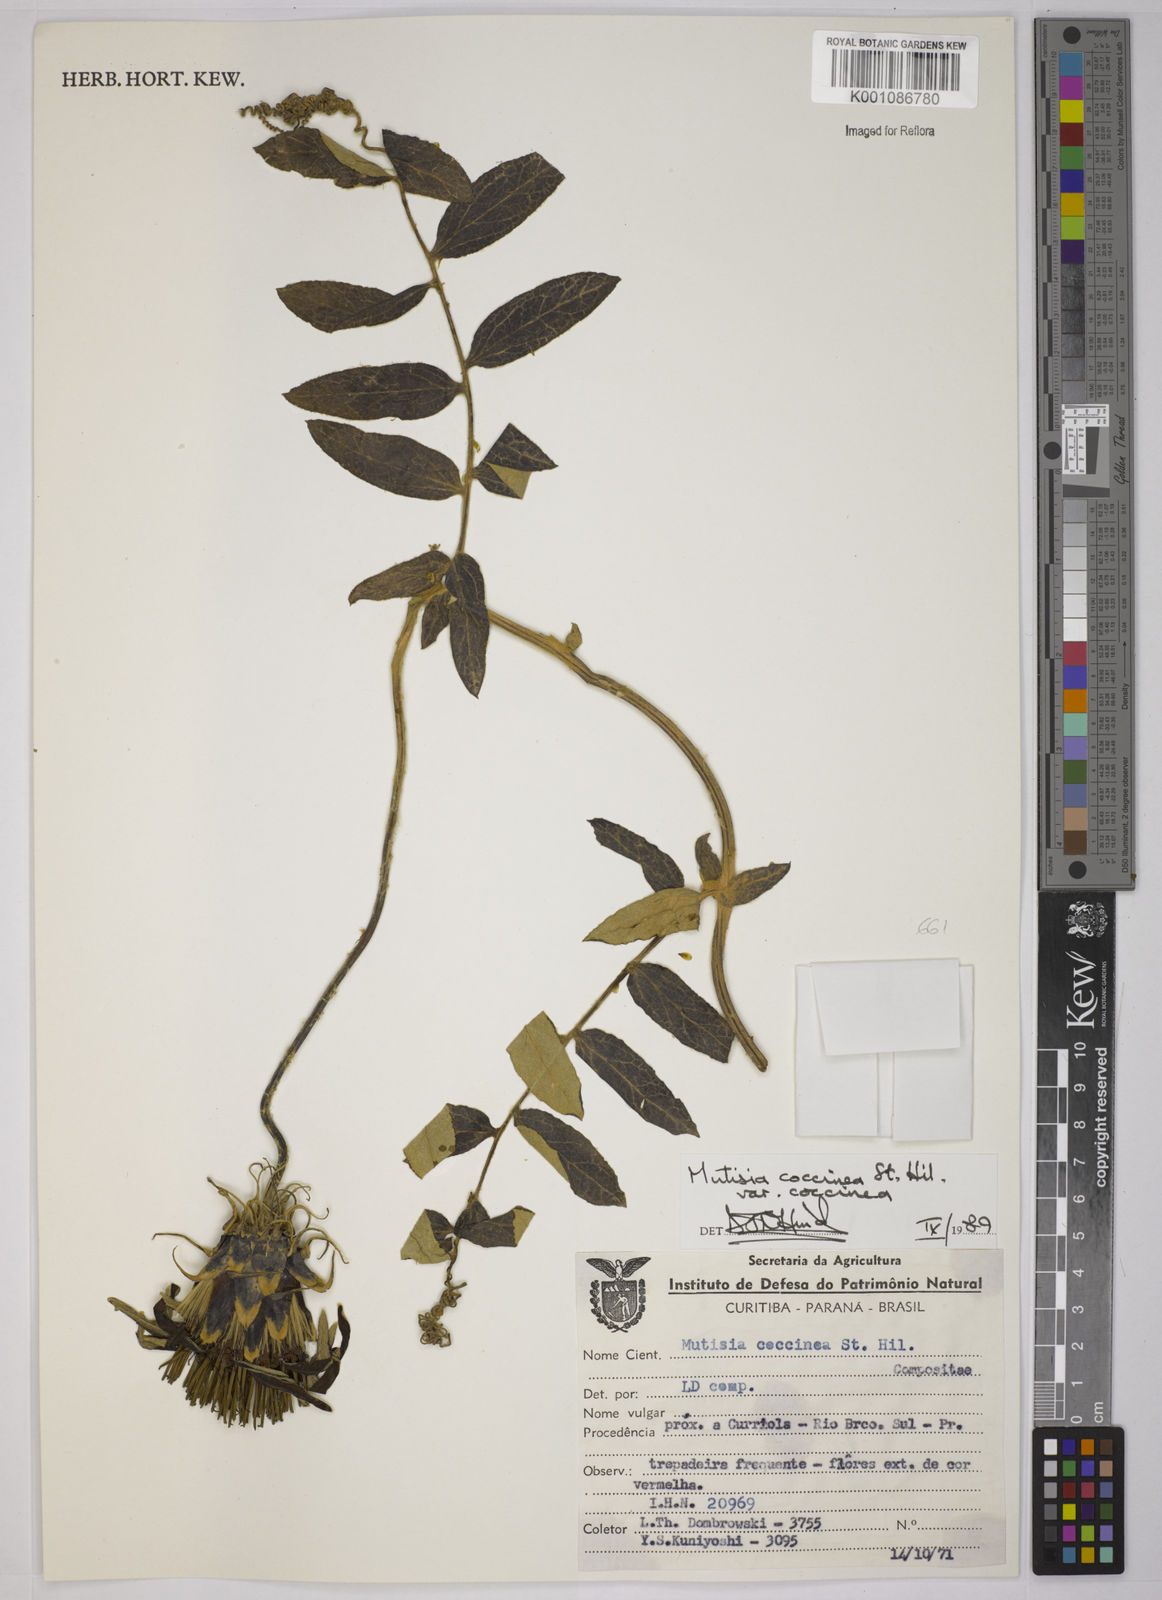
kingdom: Plantae
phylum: Tracheophyta
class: Magnoliopsida
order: Asterales
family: Asteraceae
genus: Mutisia
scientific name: Mutisia coccinea
